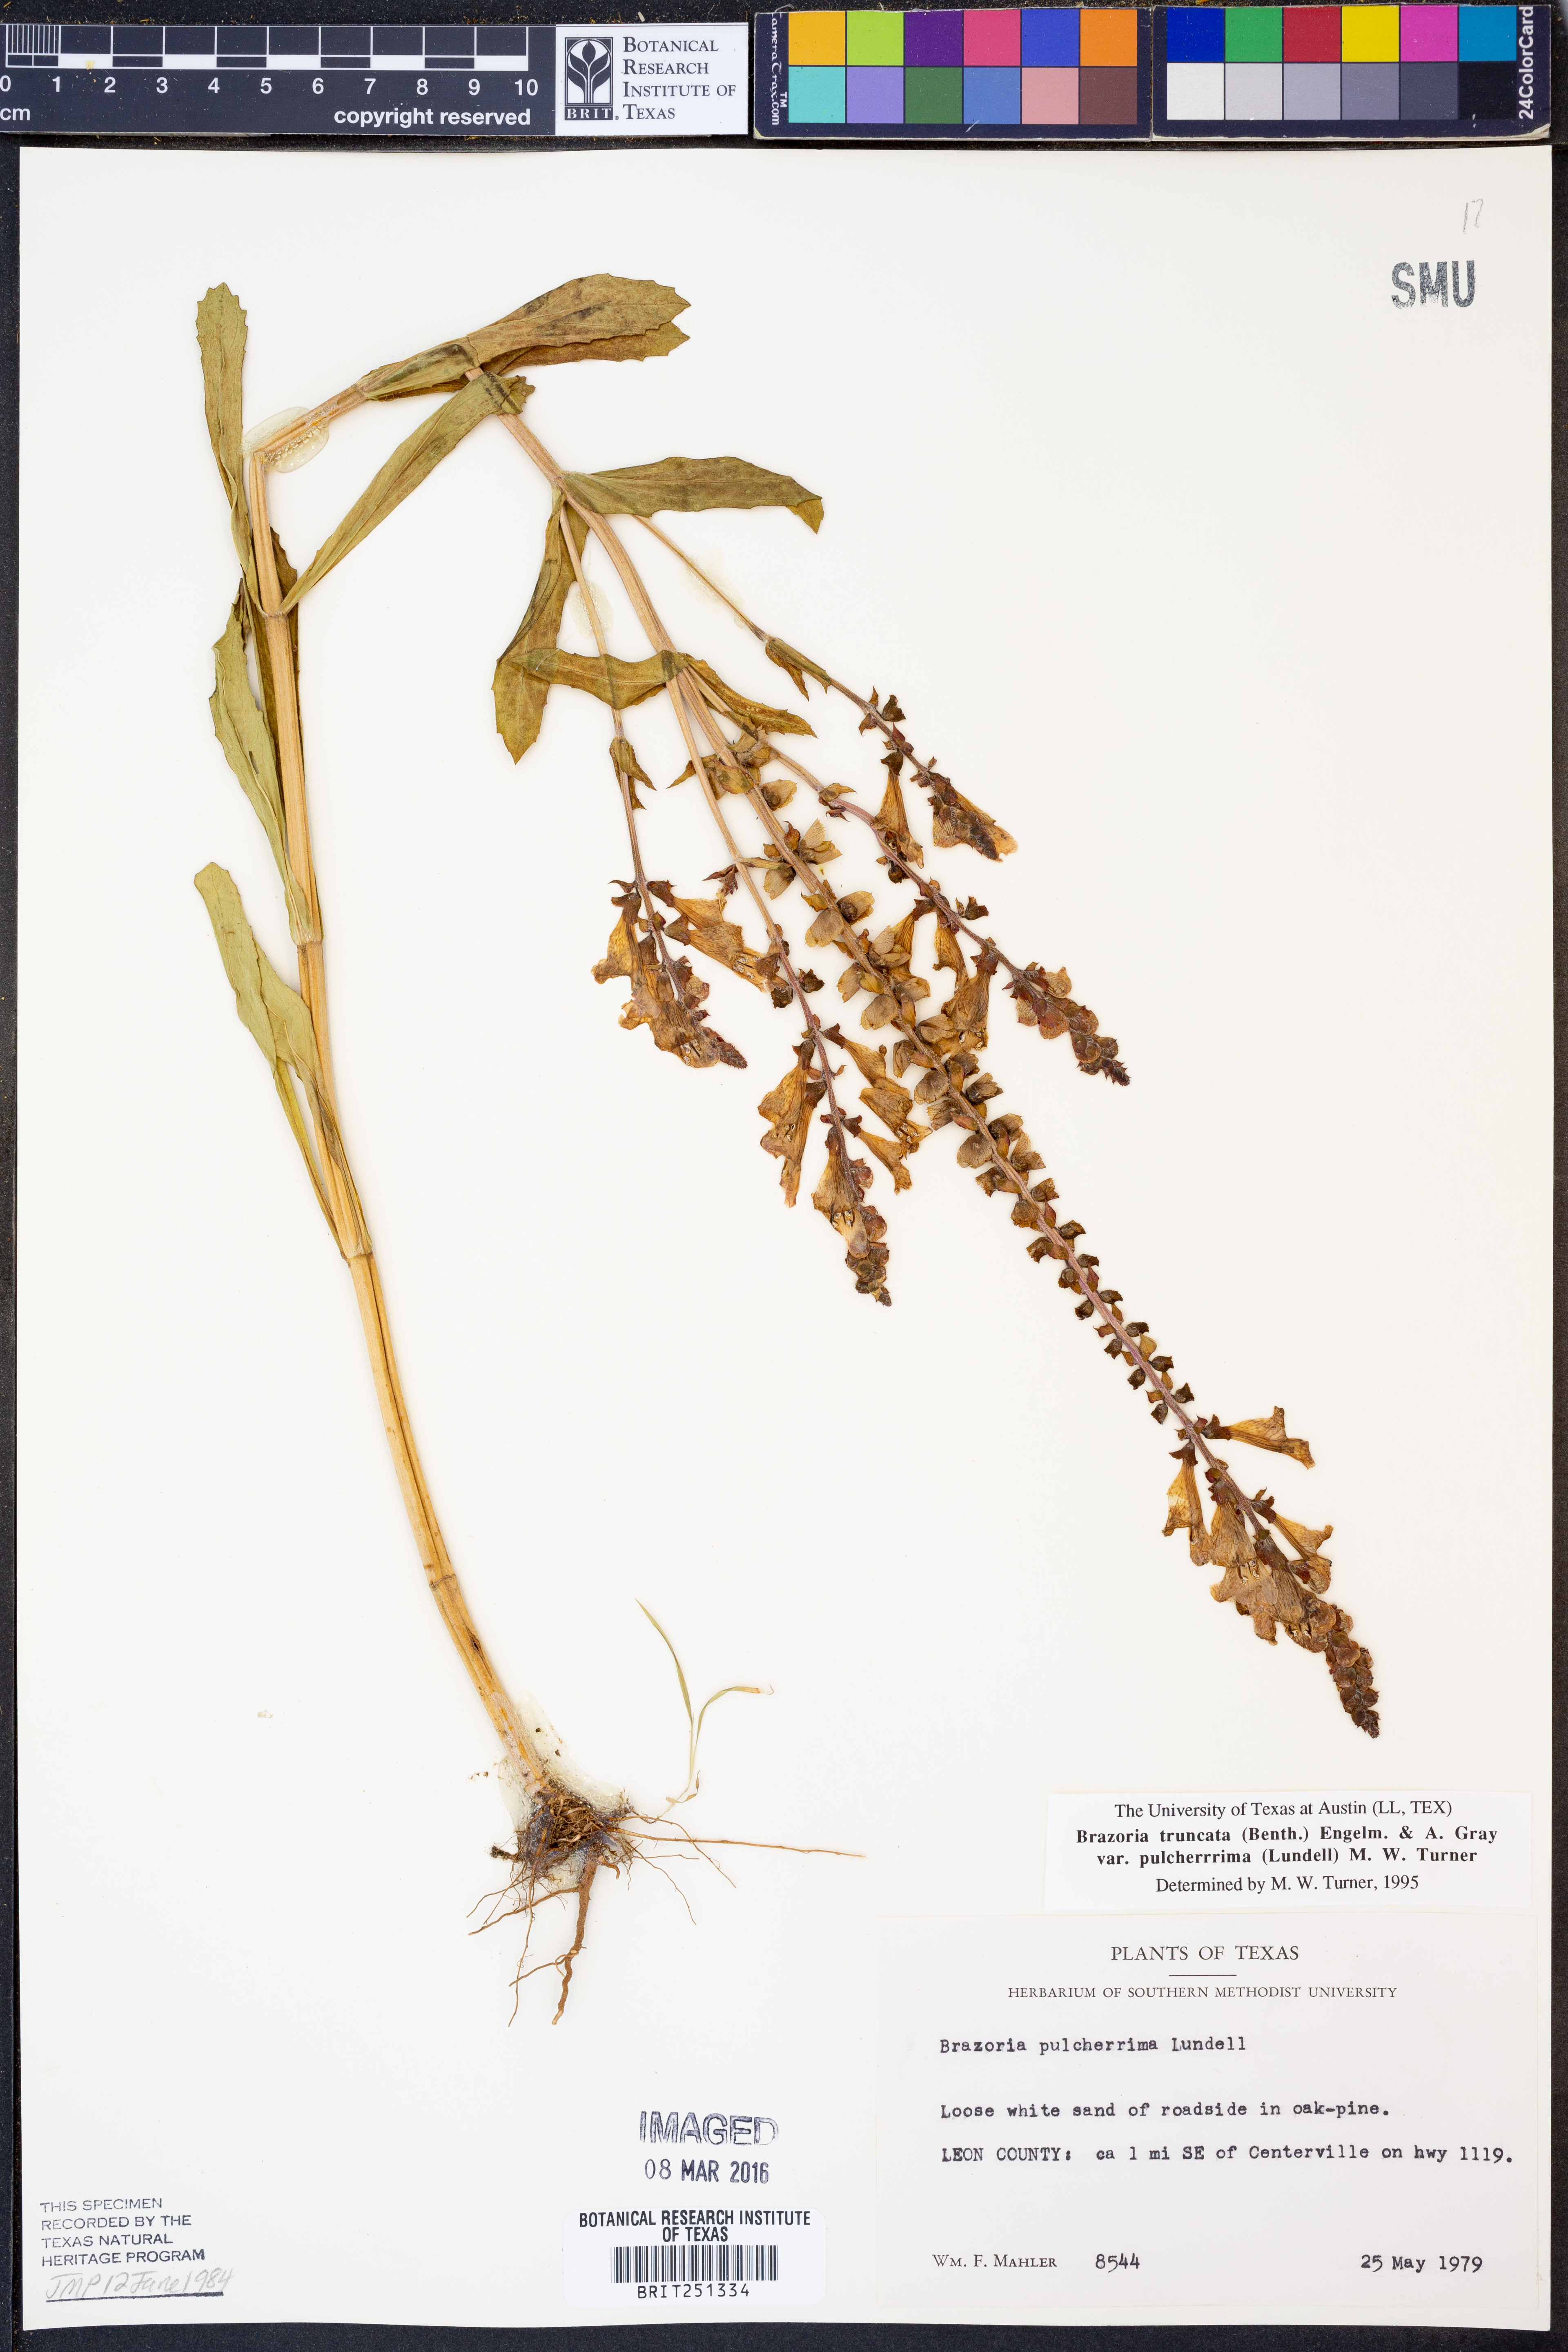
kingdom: Plantae
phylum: Tracheophyta
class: Magnoliopsida
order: Lamiales
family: Lamiaceae
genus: Brazoria
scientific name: Brazoria truncata
